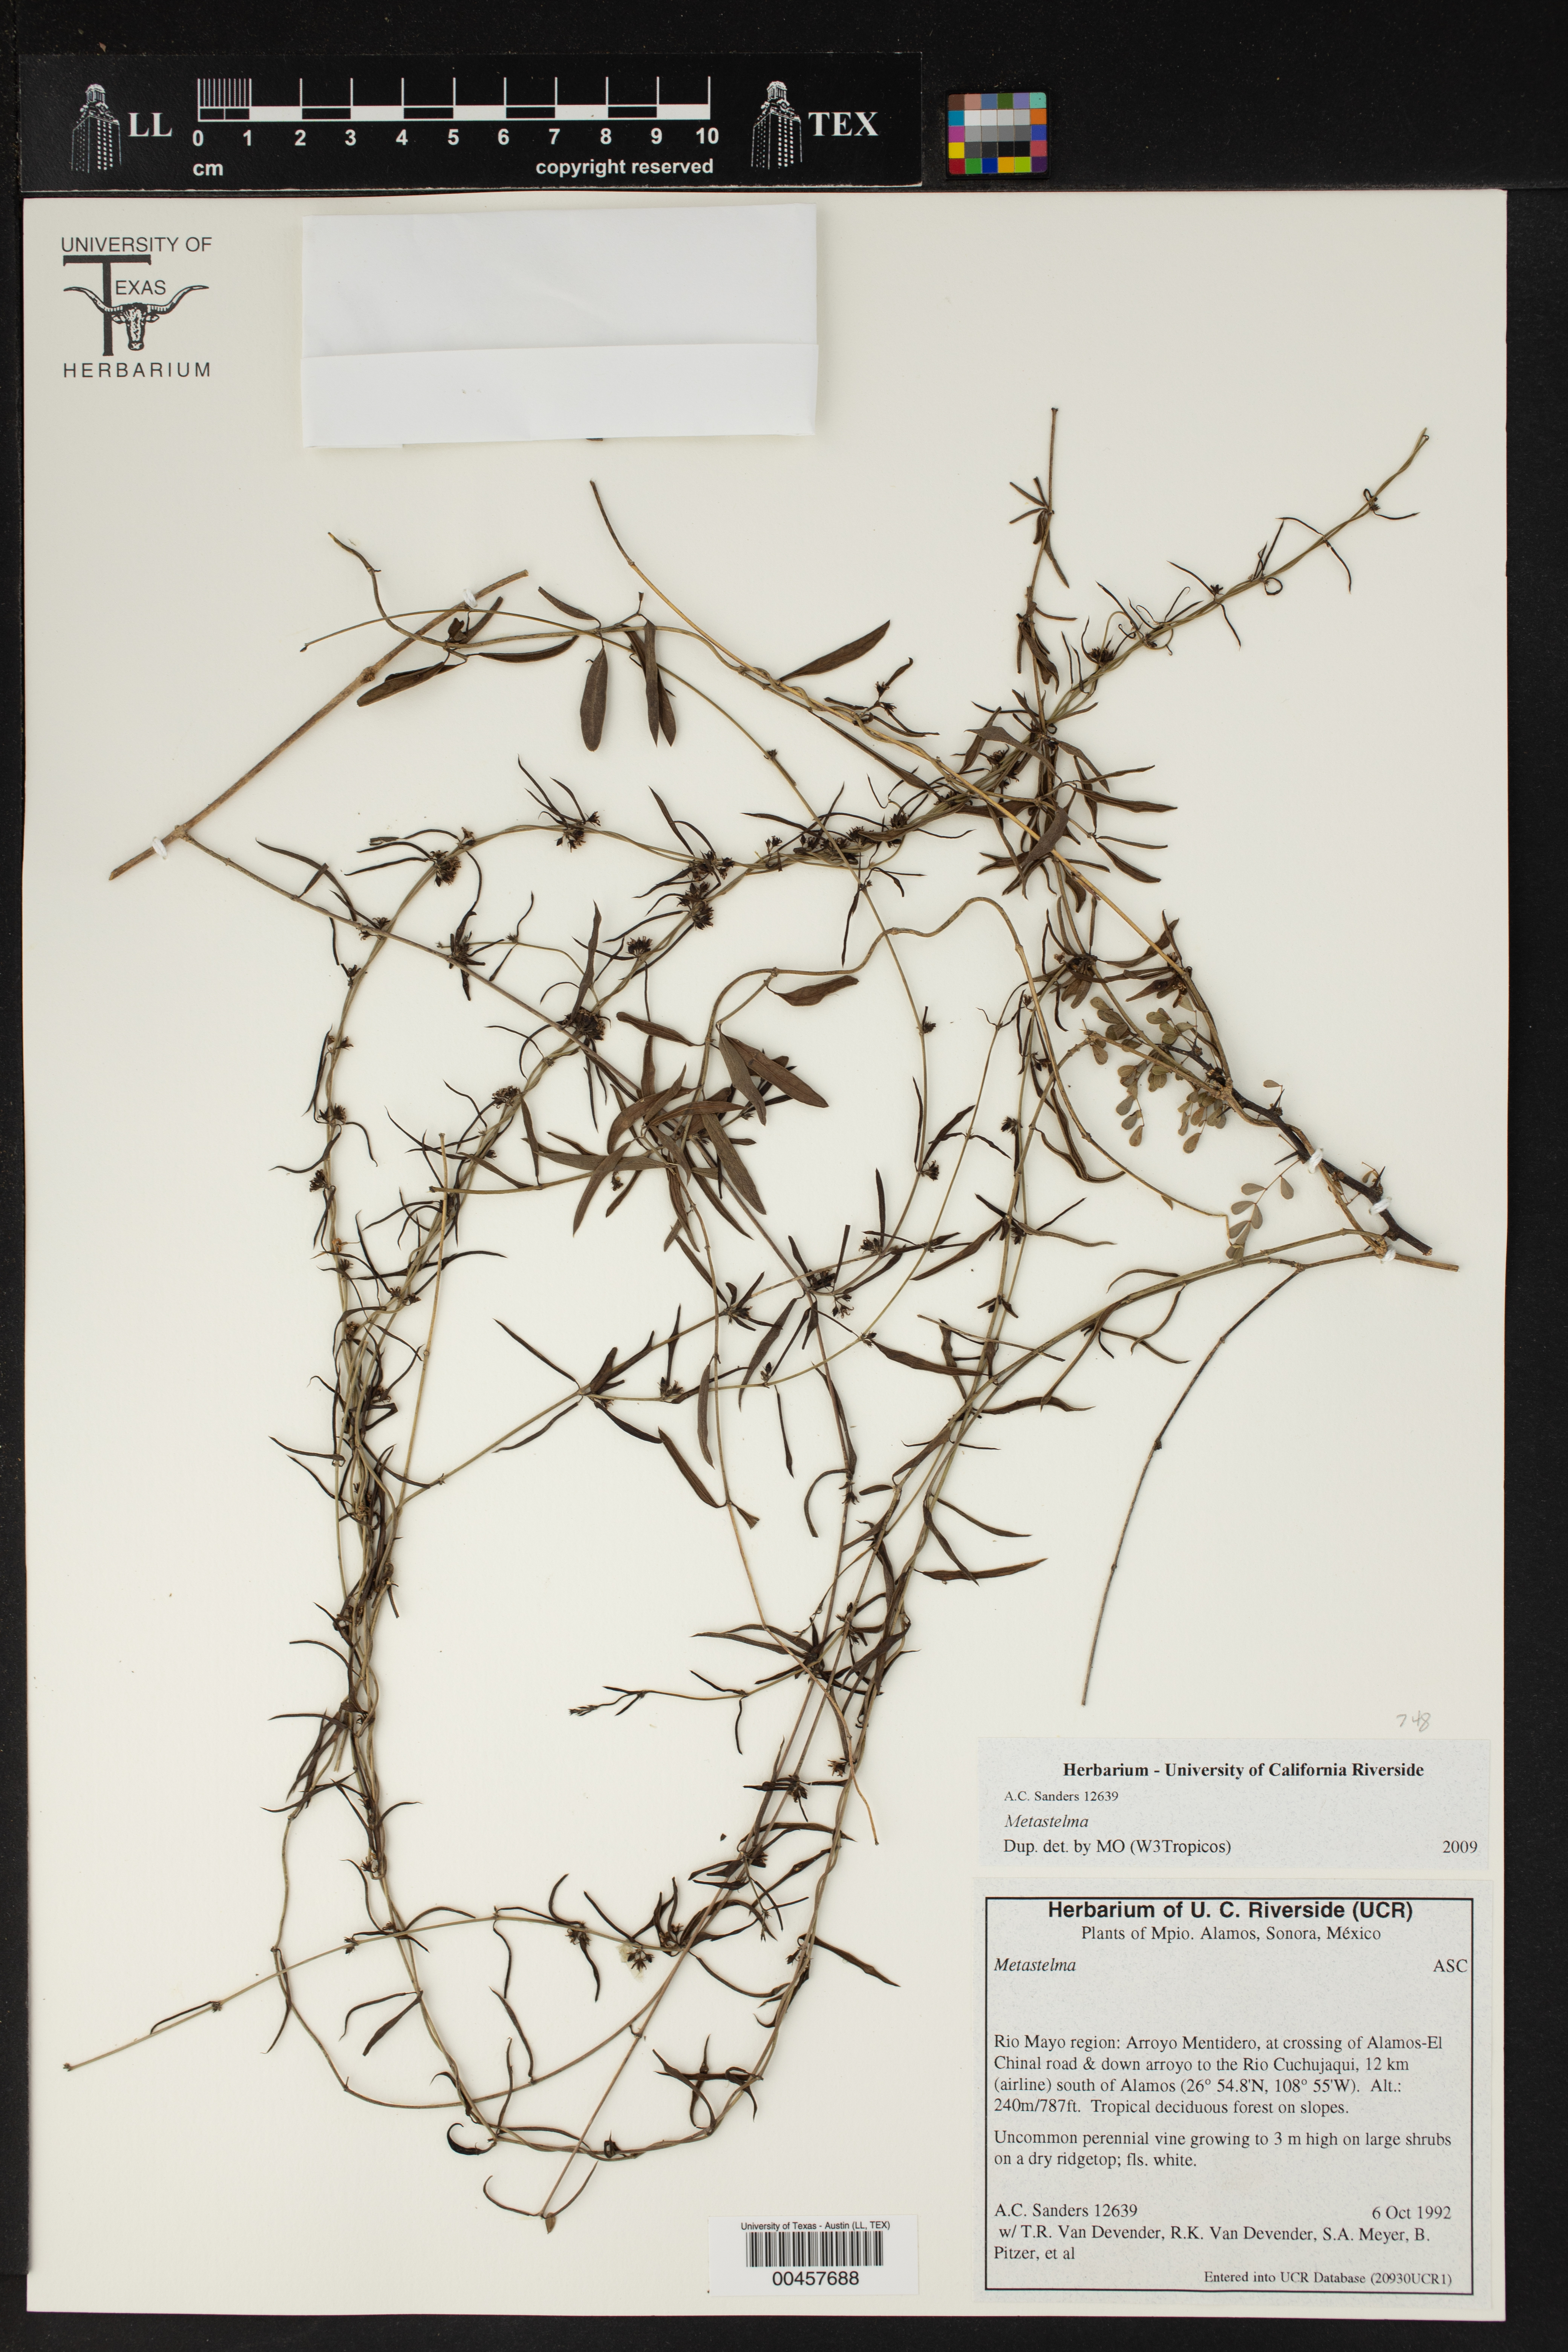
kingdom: Plantae
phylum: Tracheophyta
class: Magnoliopsida
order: Gentianales
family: Apocynaceae
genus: Metastelma
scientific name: Metastelma
